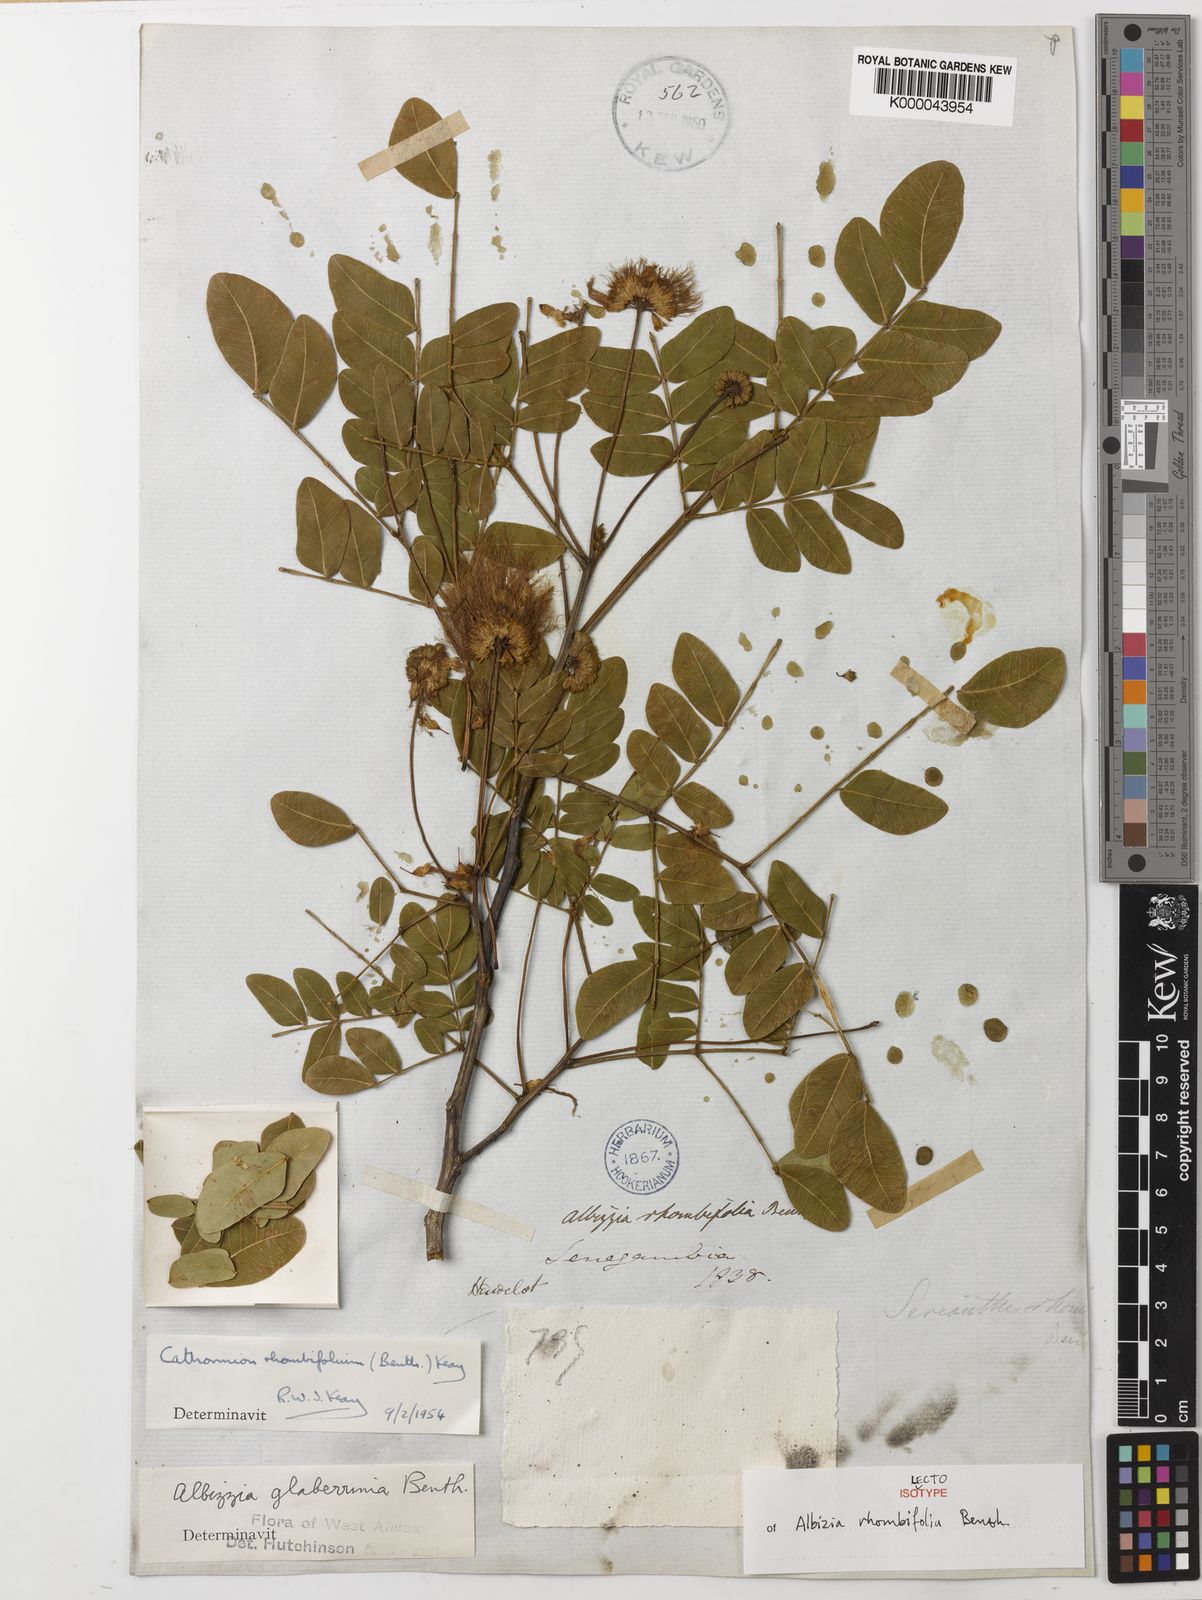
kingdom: Plantae
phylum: Tracheophyta
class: Magnoliopsida
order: Fabales
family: Fabaceae
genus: Albizia
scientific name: Albizia rhombifolia
